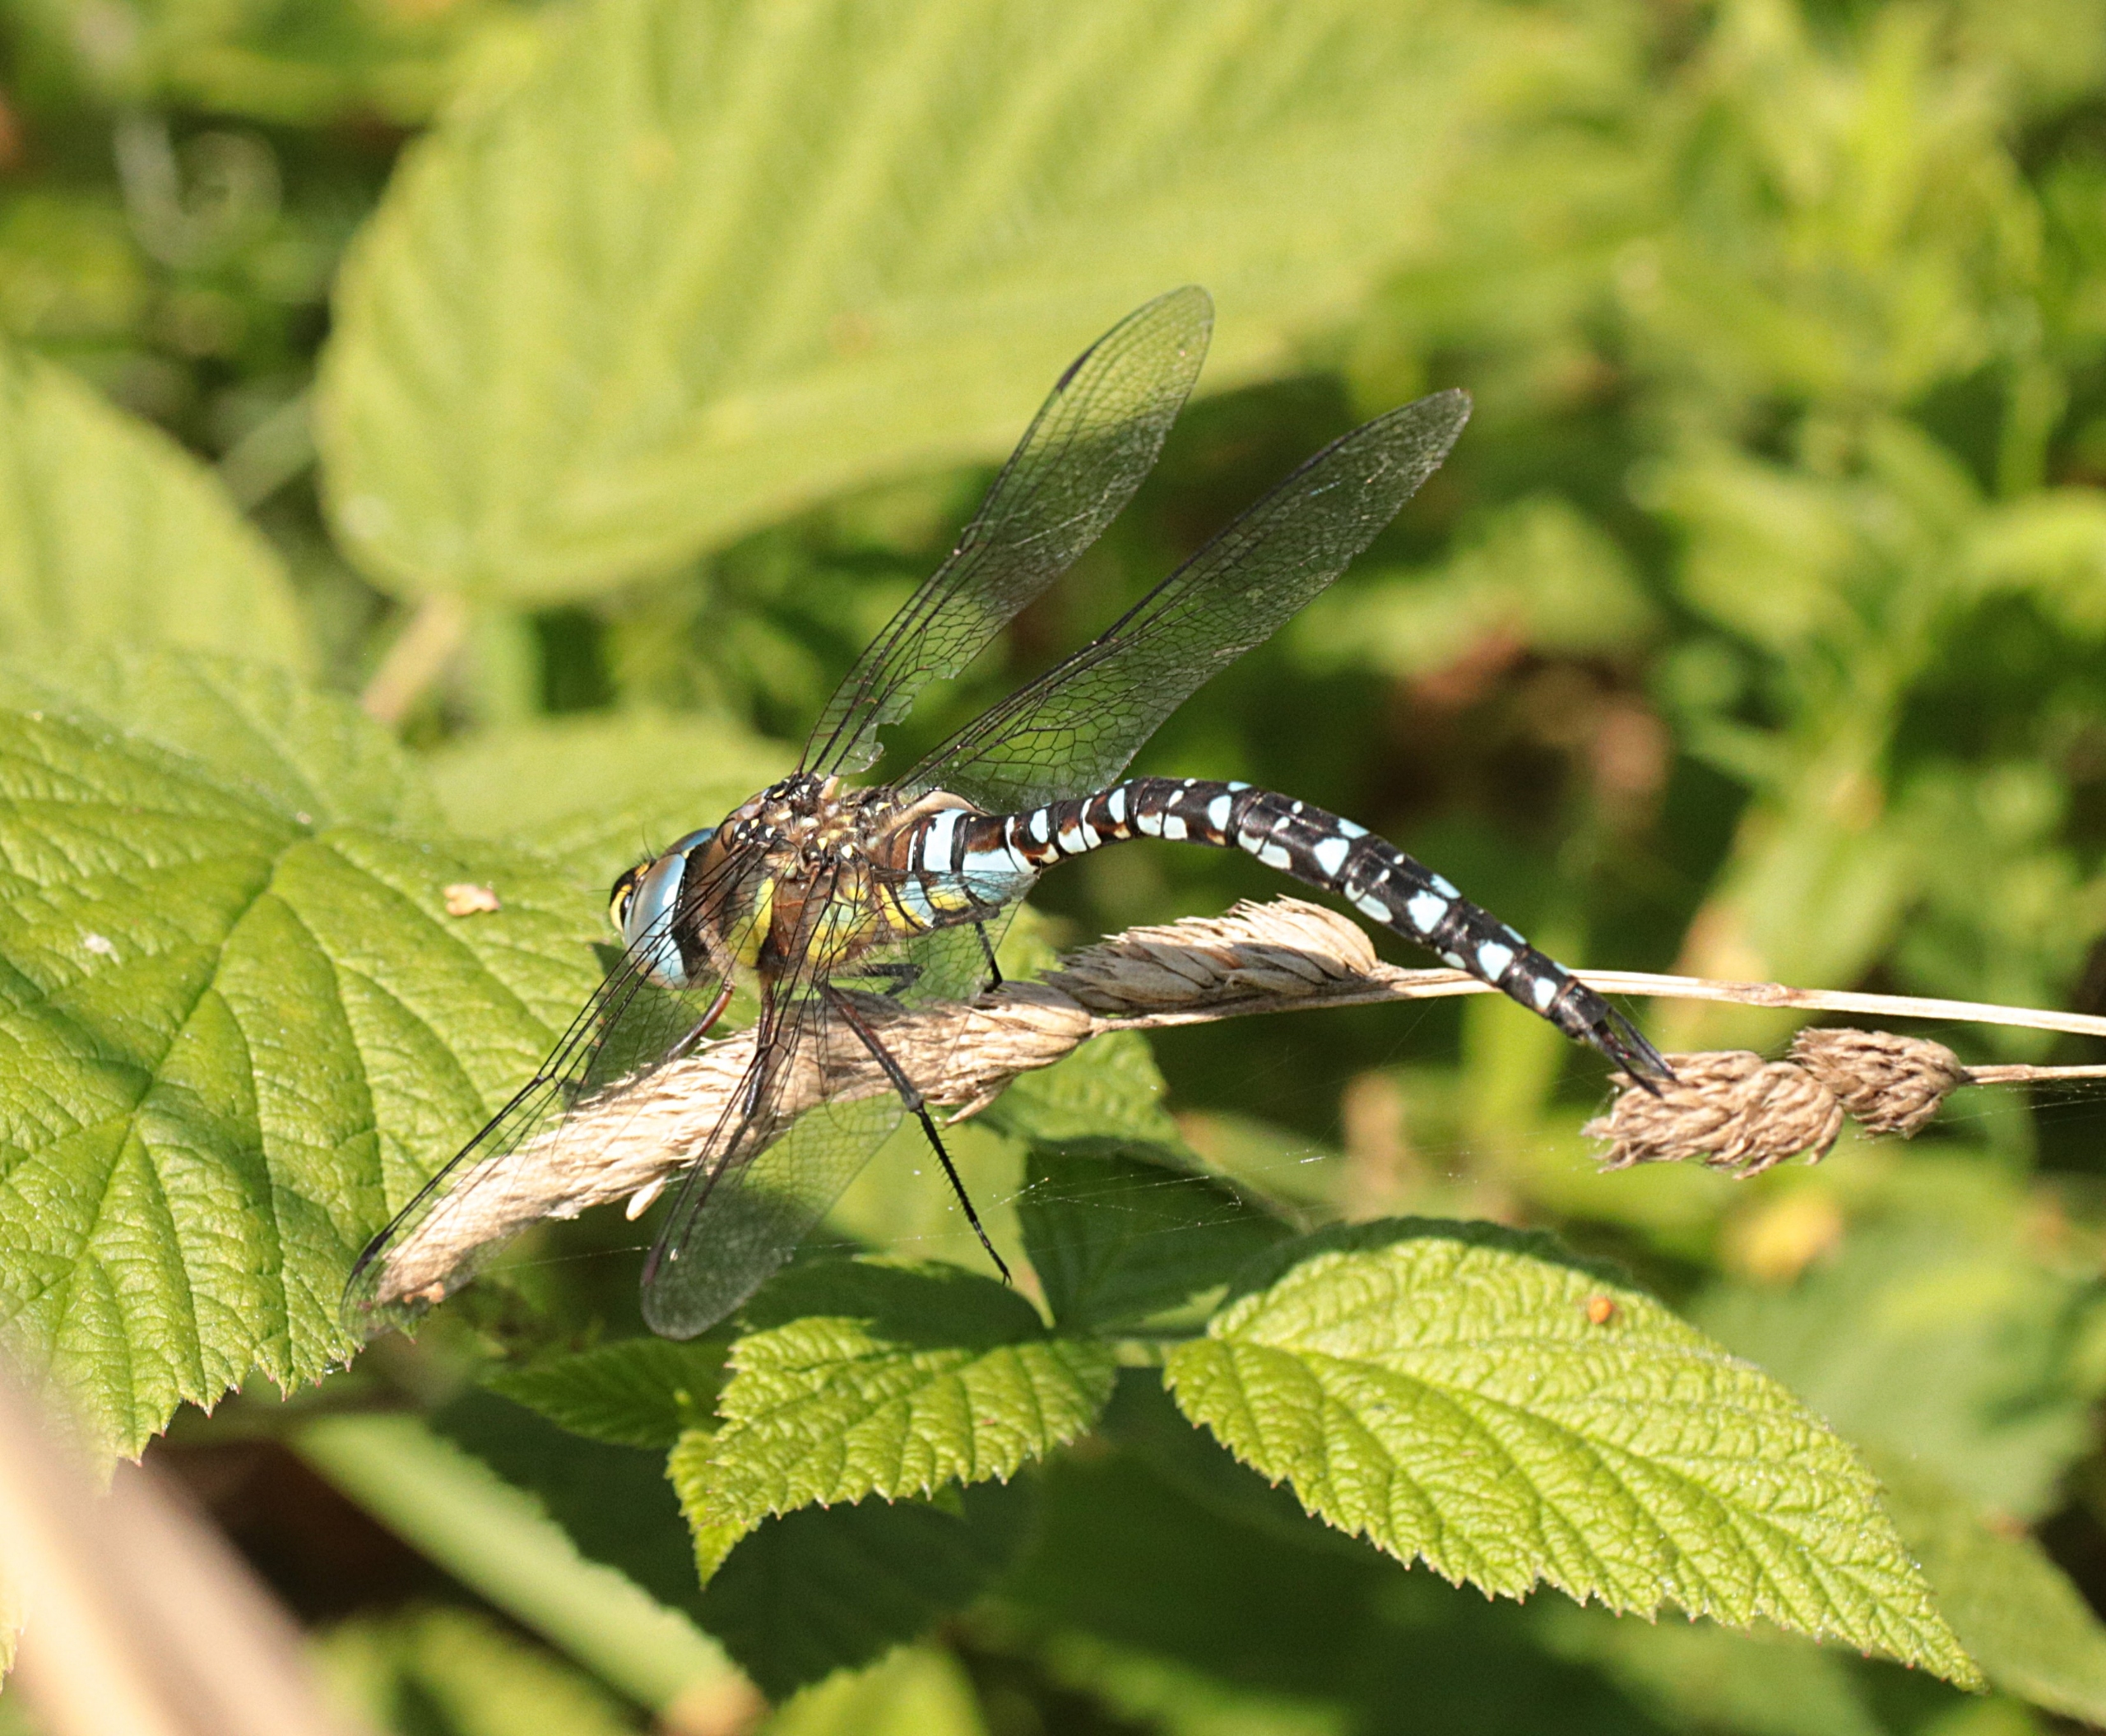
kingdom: Animalia
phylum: Arthropoda
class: Insecta
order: Odonata
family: Aeshnidae
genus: Aeshna
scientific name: Aeshna mixta
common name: Efterårs-mosaikguldsmed
